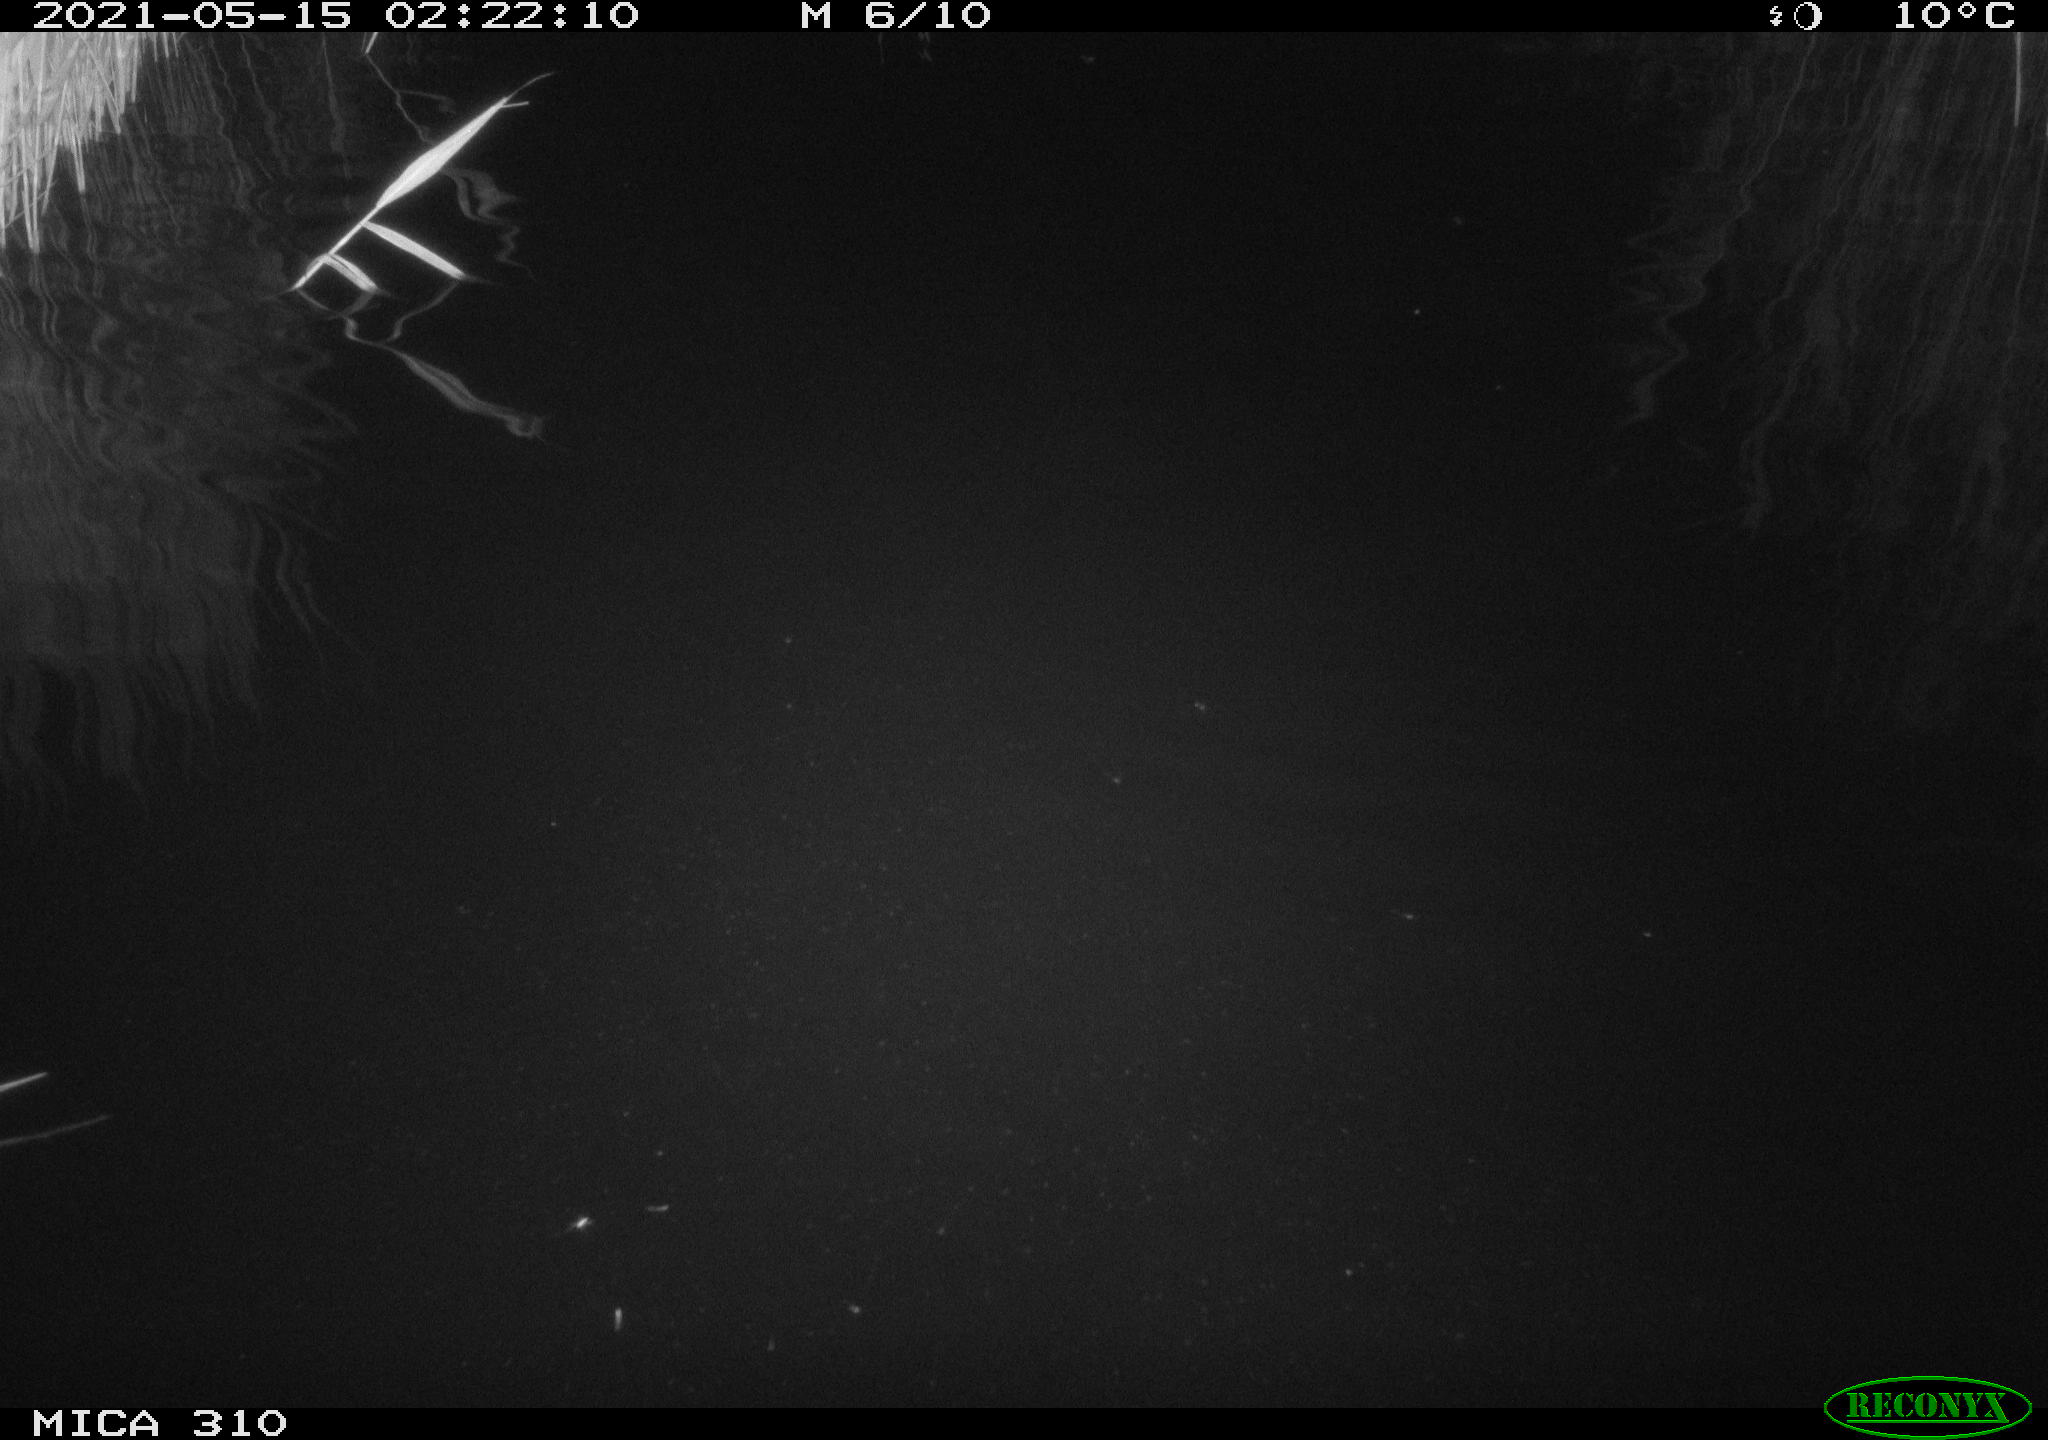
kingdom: Animalia
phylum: Chordata
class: Aves
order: Anseriformes
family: Anatidae
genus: Anas
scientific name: Anas platyrhynchos
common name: Mallard
